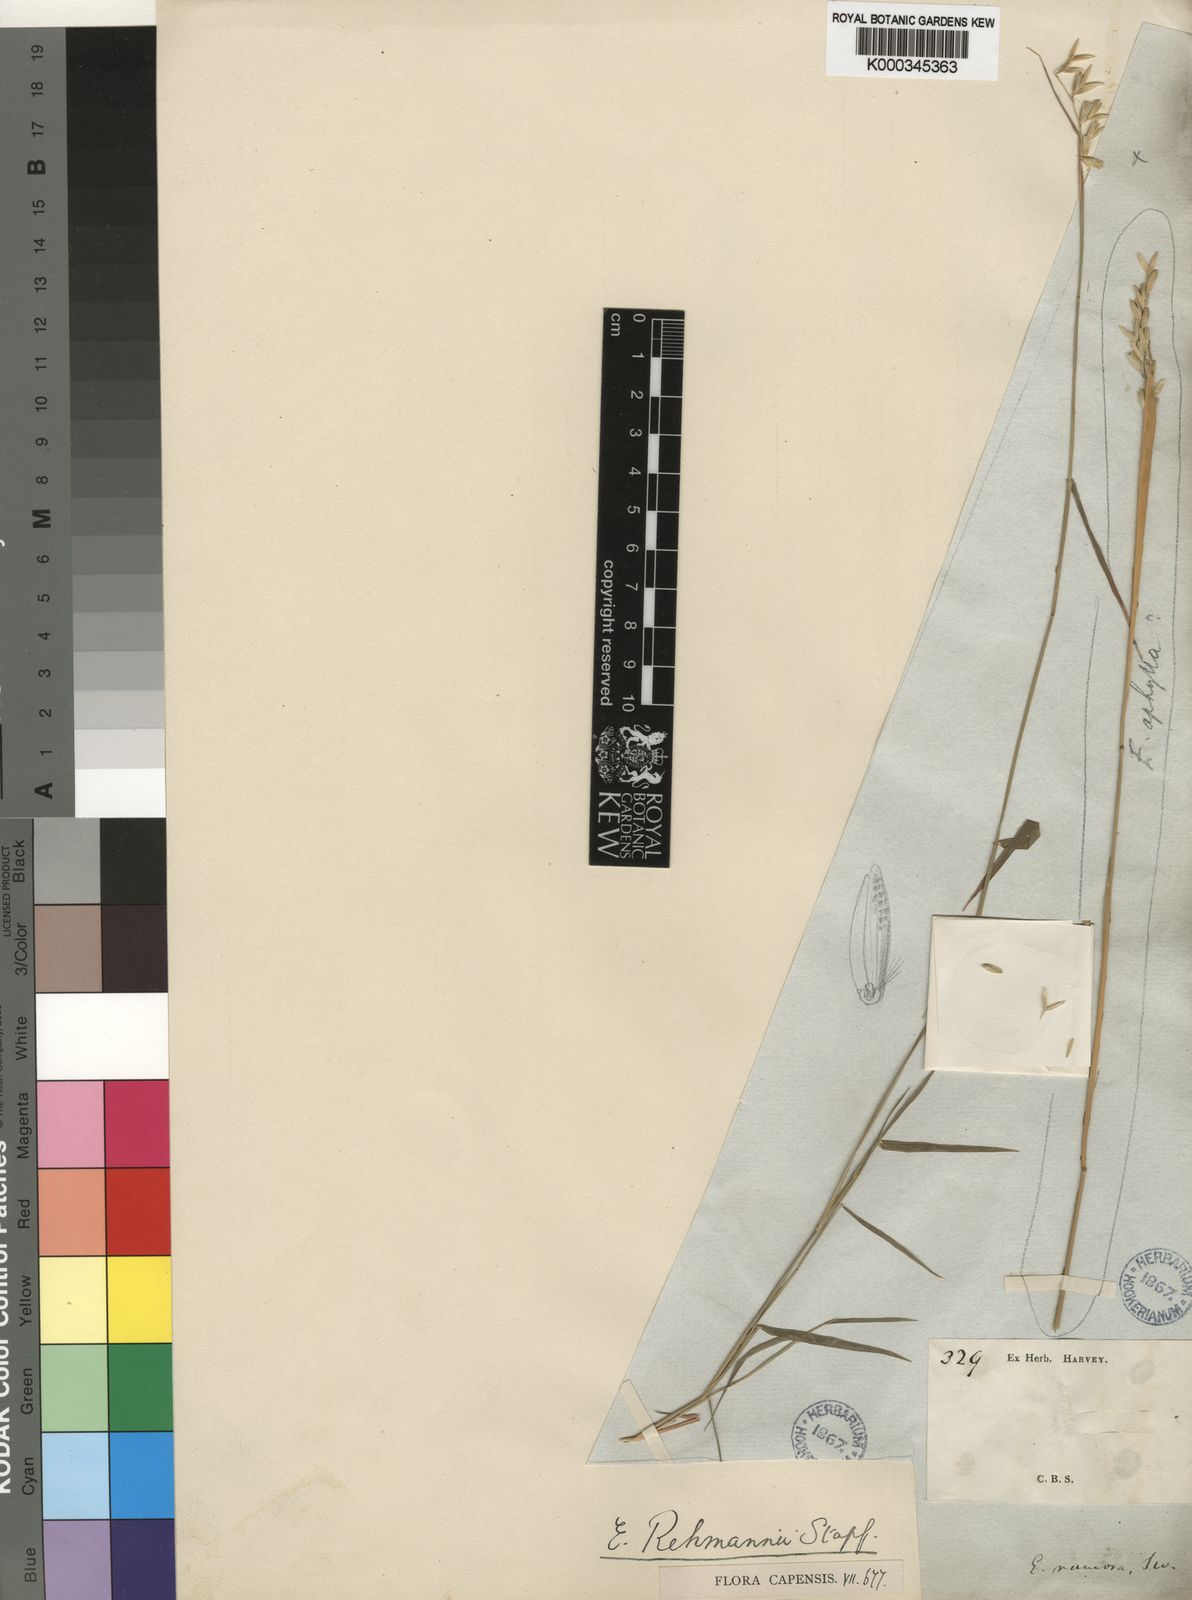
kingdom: Plantae
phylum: Tracheophyta
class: Liliopsida
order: Poales
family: Poaceae
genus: Ehrharta
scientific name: Ehrharta rehmannii
